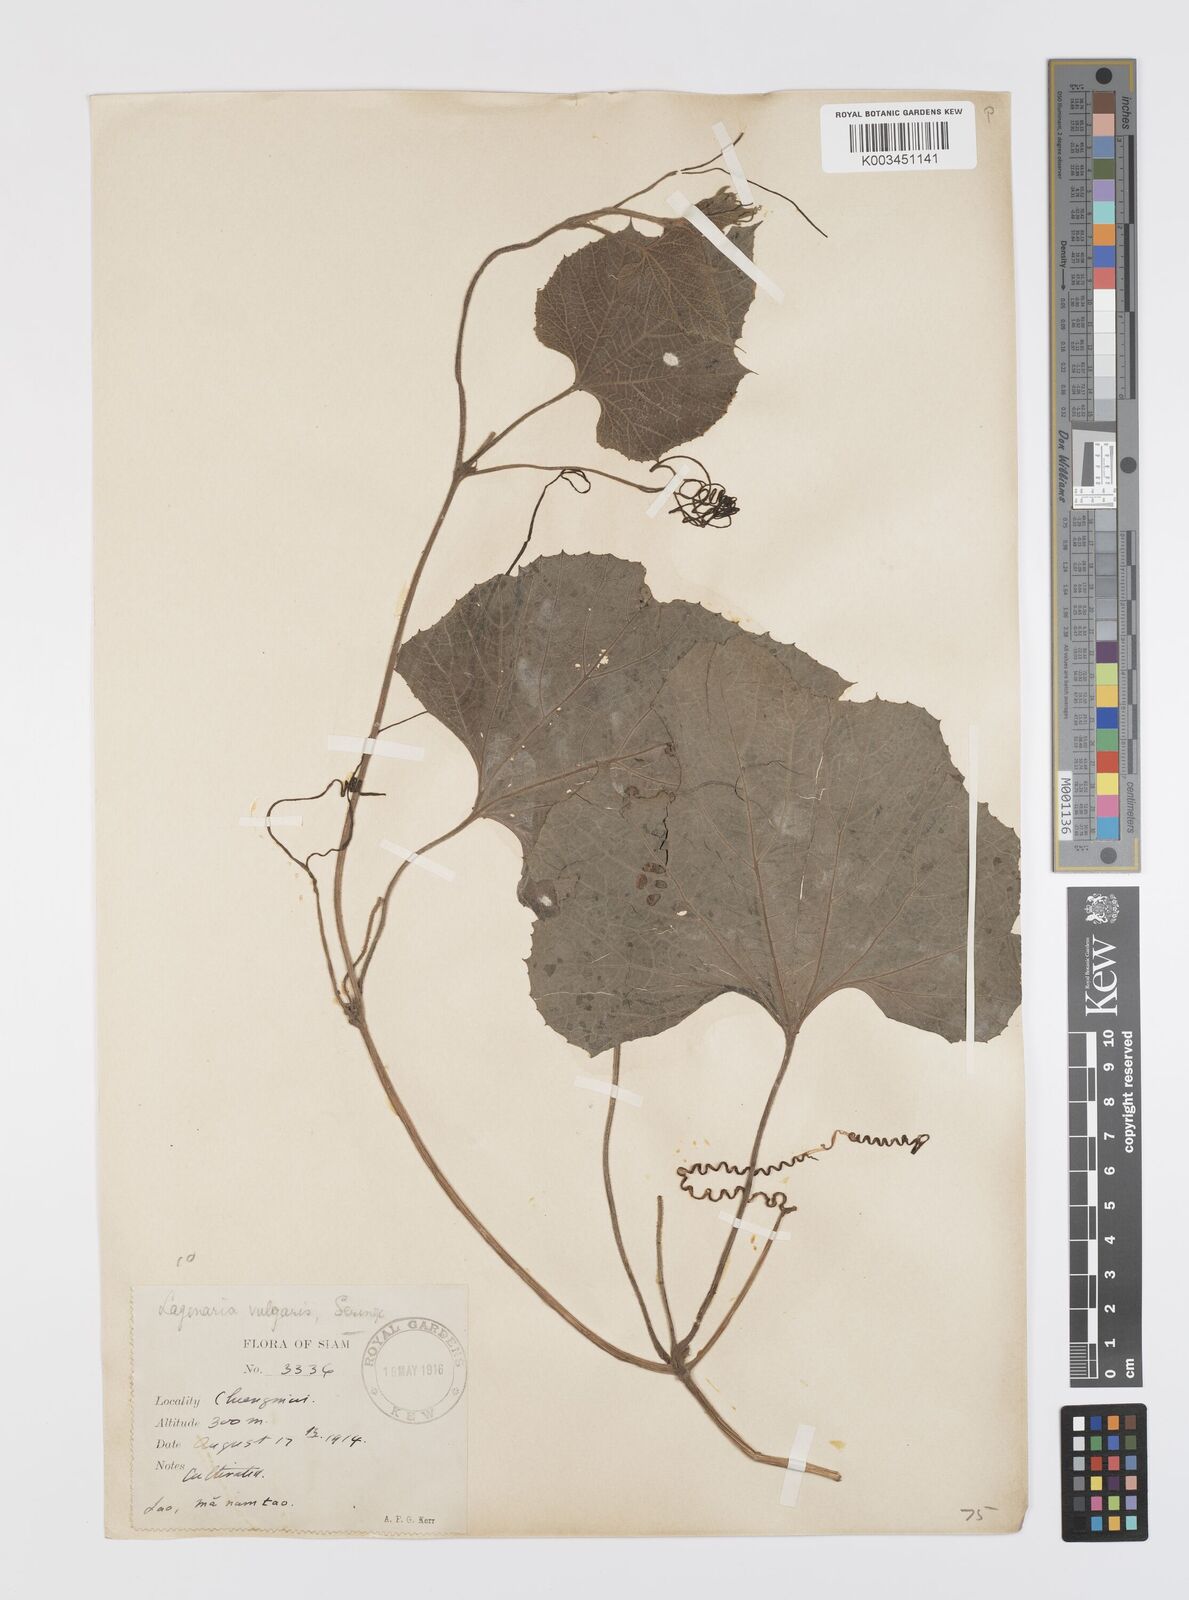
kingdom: Plantae
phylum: Tracheophyta
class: Magnoliopsida
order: Cucurbitales
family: Cucurbitaceae
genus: Lagenaria
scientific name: Lagenaria siceraria
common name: Bottle gourd
